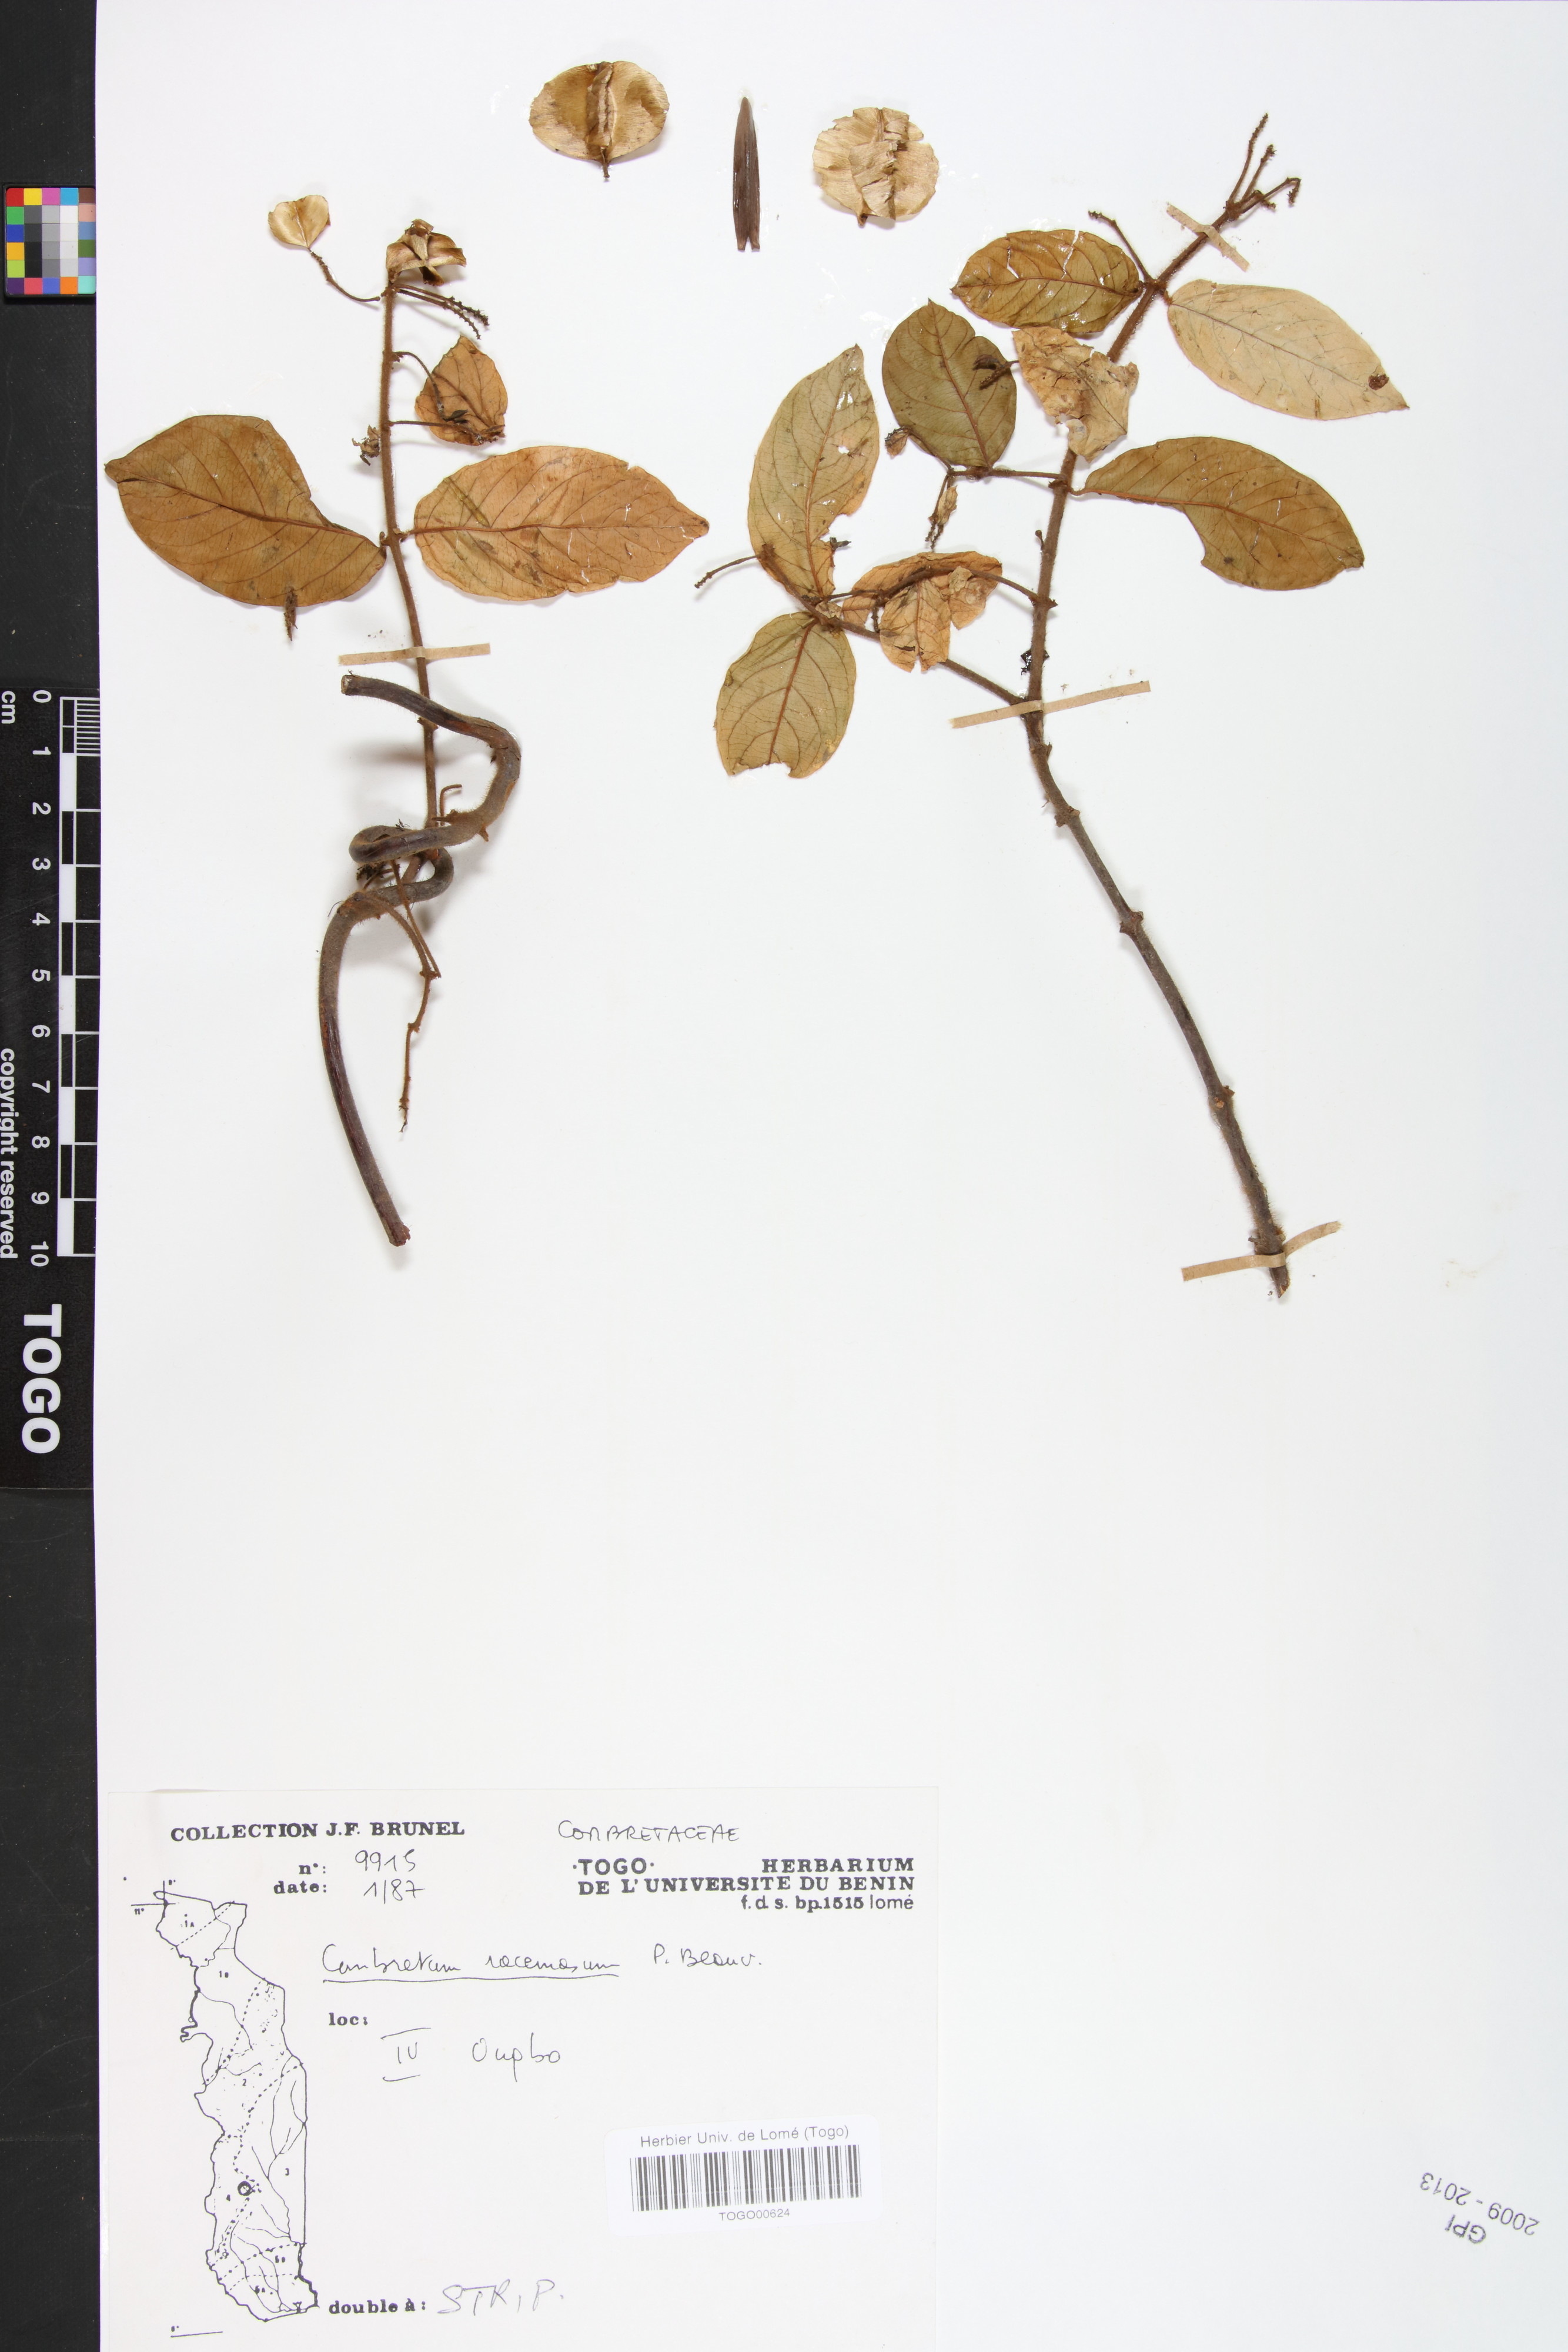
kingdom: Plantae
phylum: Tracheophyta
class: Magnoliopsida
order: Myrtales
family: Combretaceae
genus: Combretum
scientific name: Combretum racemosum
